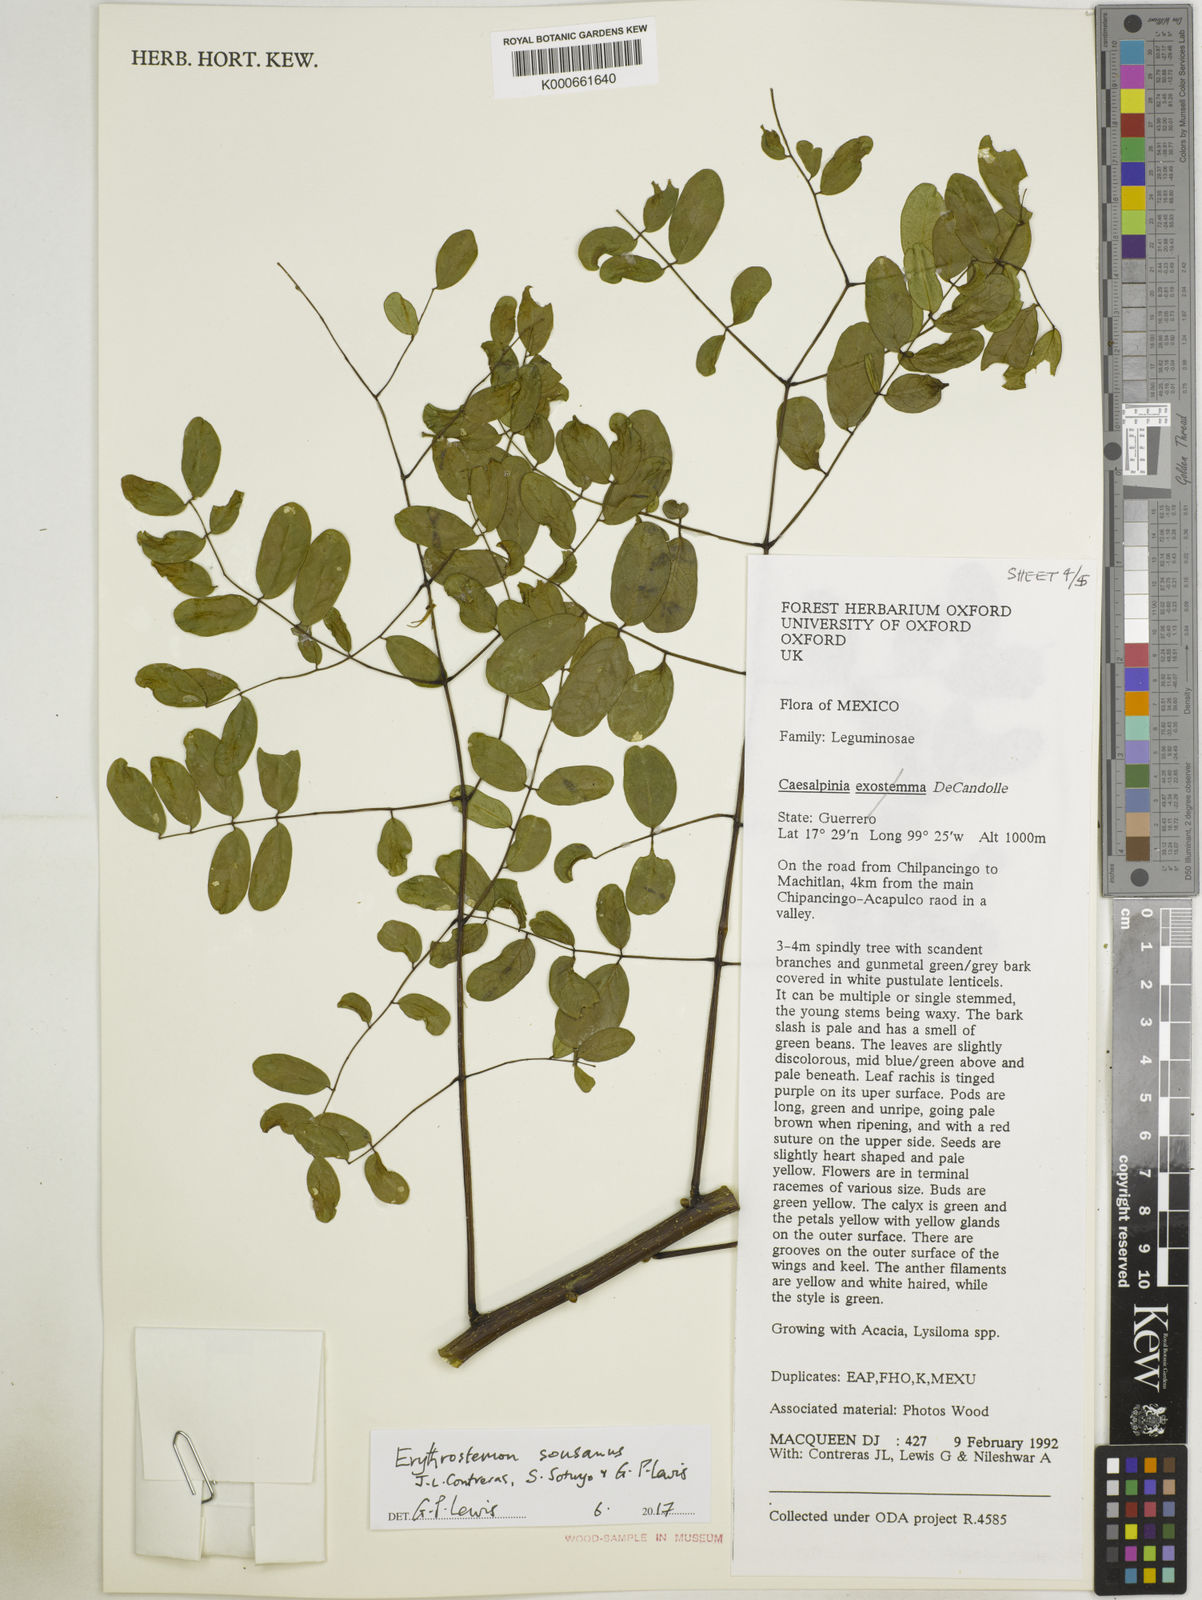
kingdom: Plantae
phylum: Tracheophyta
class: Magnoliopsida
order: Fabales
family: Fabaceae
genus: Caesalpinia
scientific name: Caesalpinia
